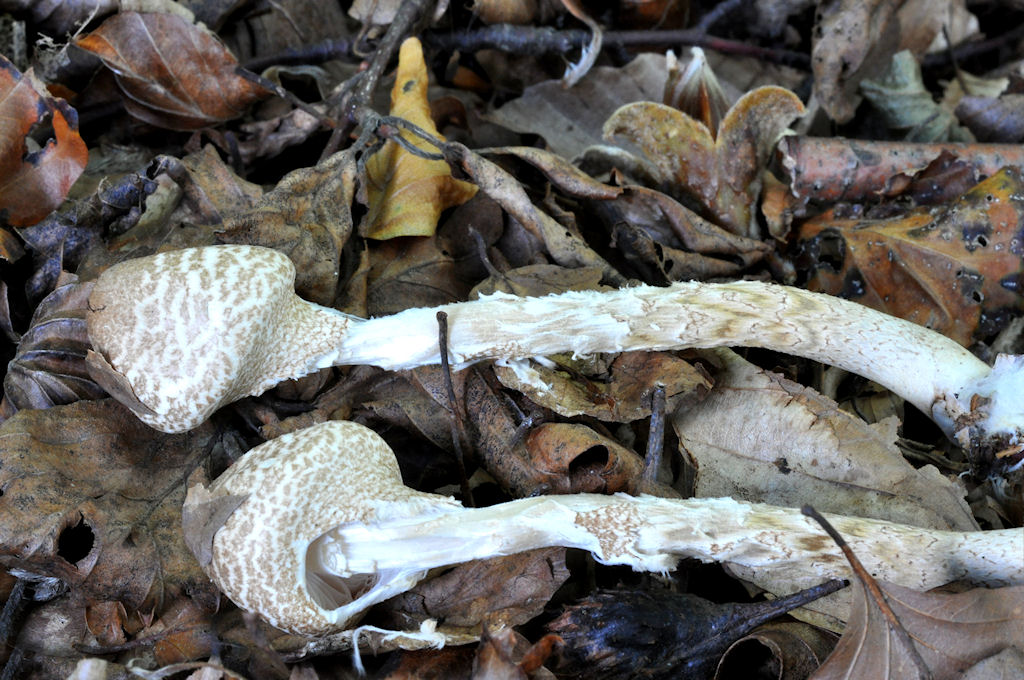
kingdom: Fungi
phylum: Basidiomycota
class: Agaricomycetes
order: Agaricales
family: Agaricaceae
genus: Lepiota
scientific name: Lepiota clypeolaria
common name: flosset parasolhat
